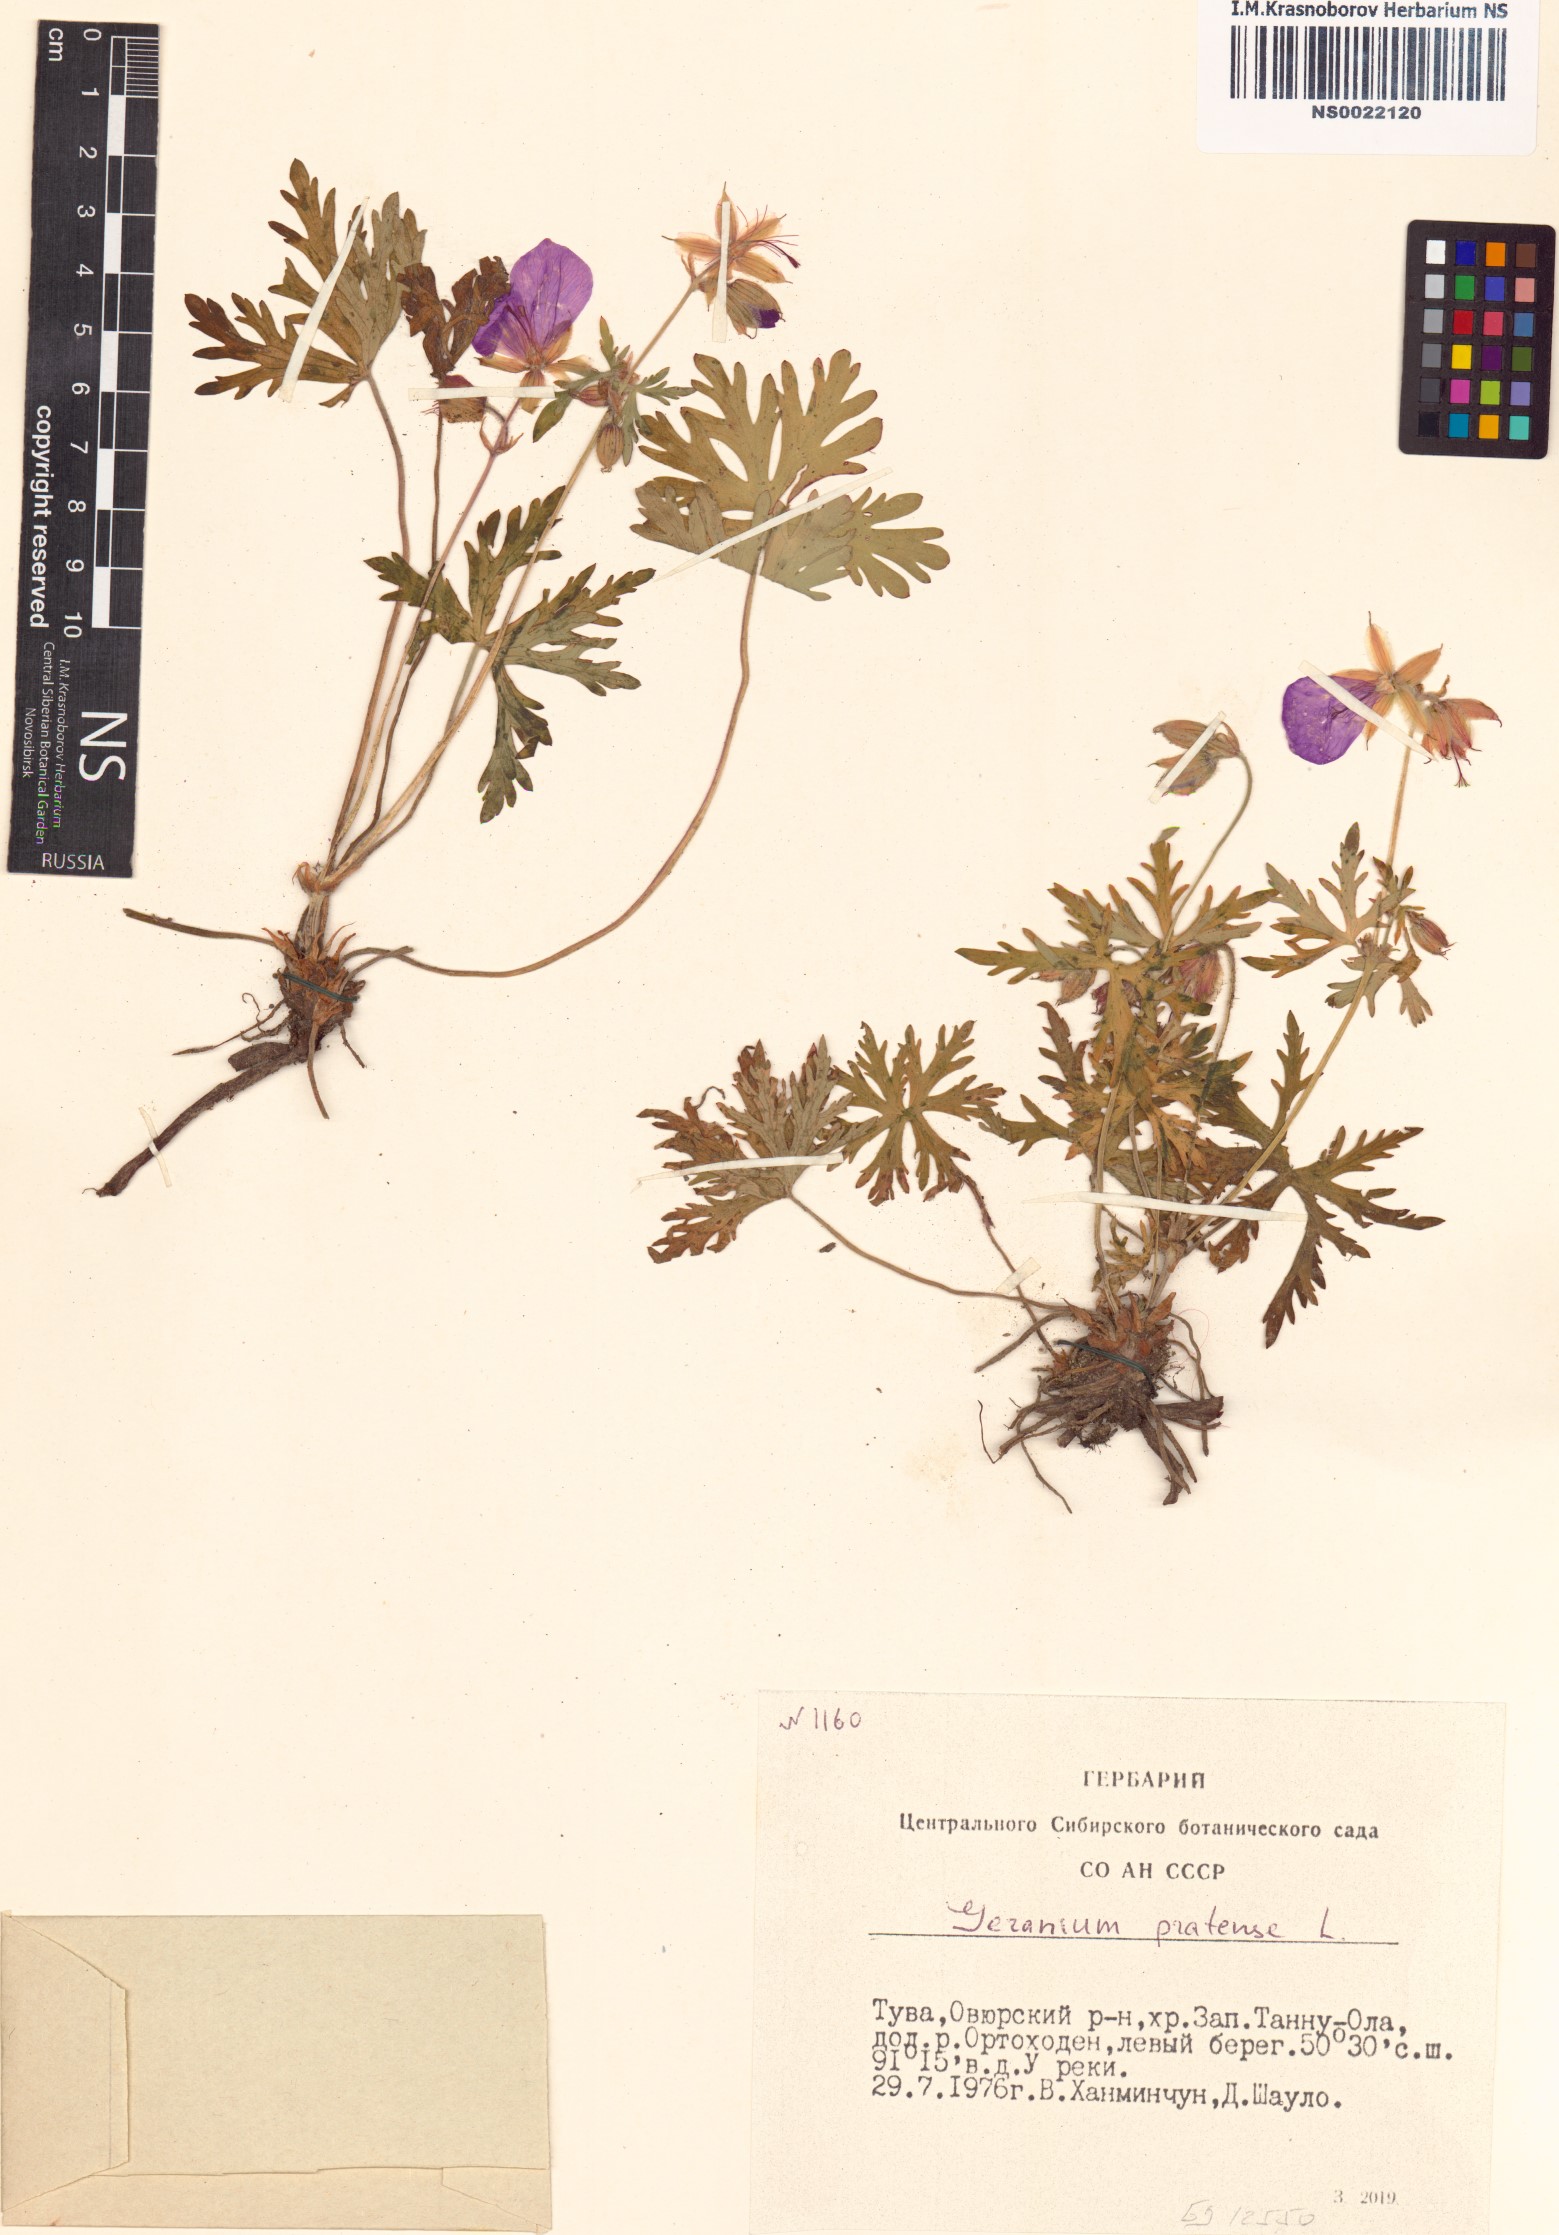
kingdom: Plantae
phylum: Tracheophyta
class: Magnoliopsida
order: Geraniales
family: Geraniaceae
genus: Geranium
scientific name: Geranium pratense
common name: Meadow crane's-bill
